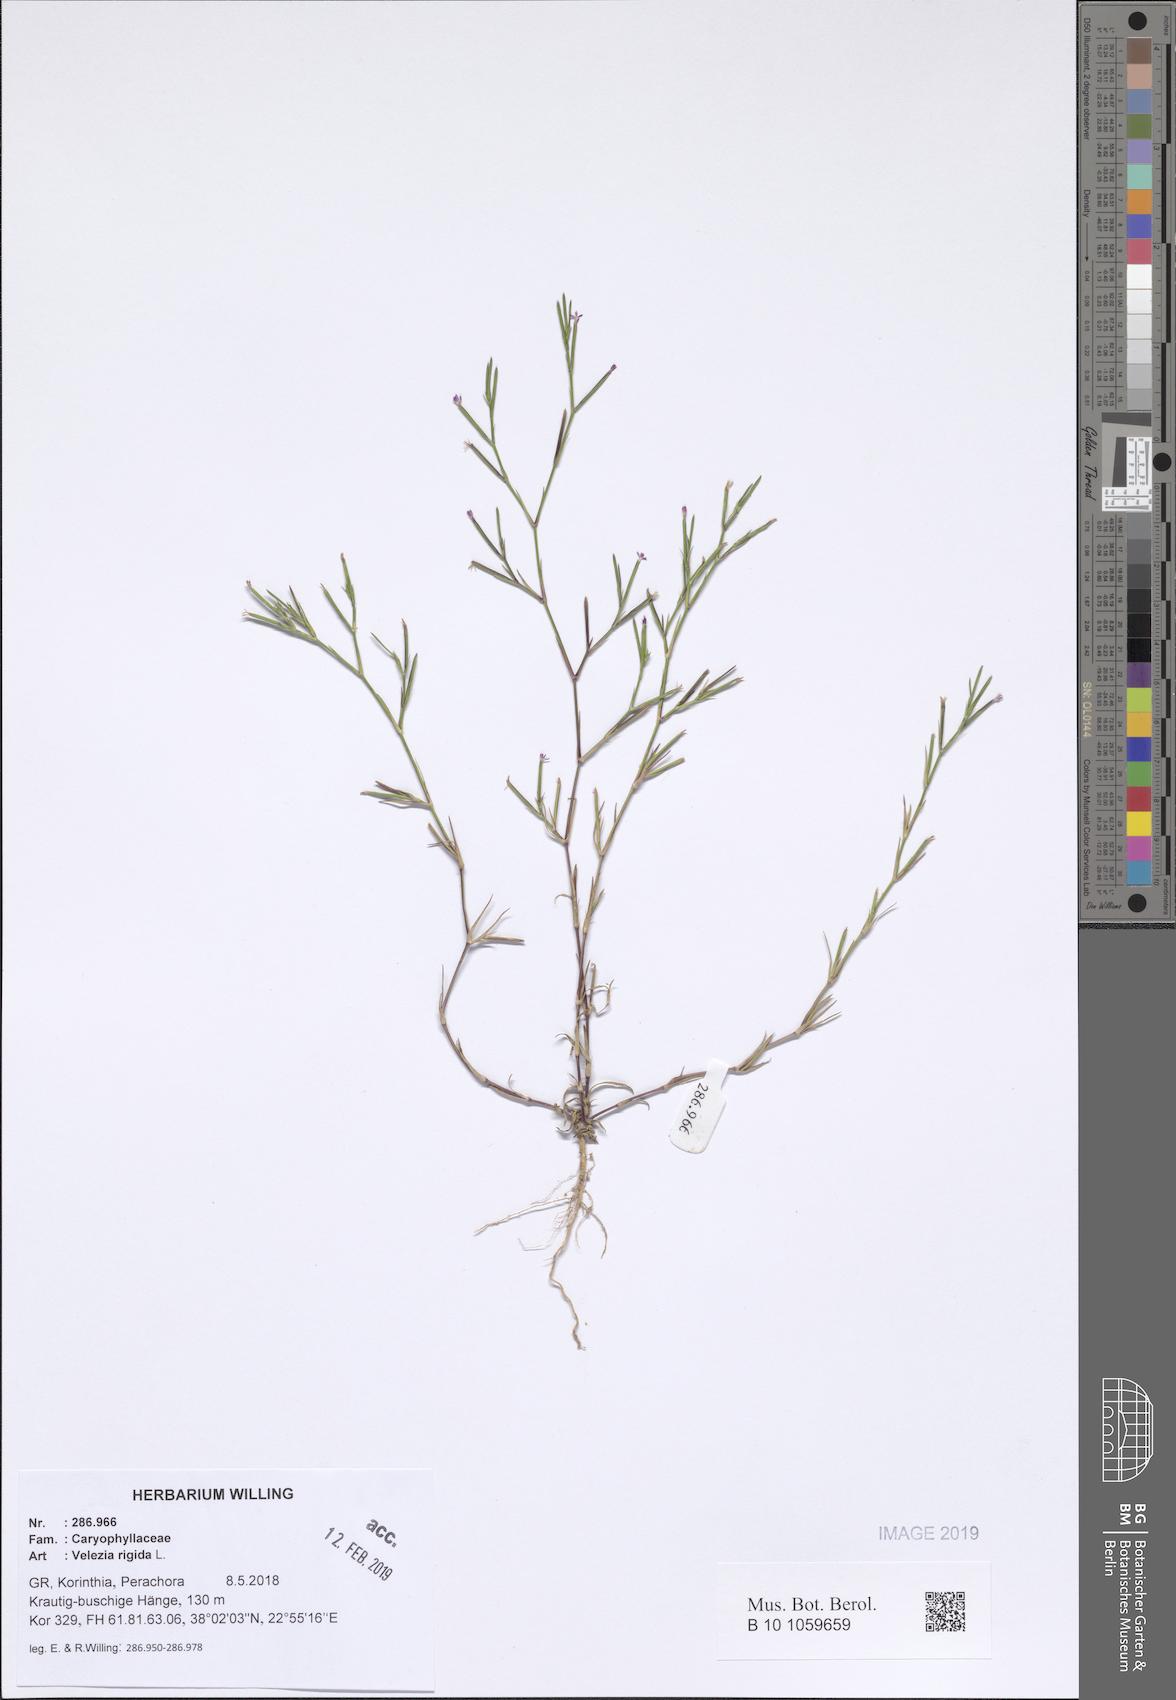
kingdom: Plantae
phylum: Tracheophyta
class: Magnoliopsida
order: Caryophyllales
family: Caryophyllaceae
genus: Dianthus
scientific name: Dianthus nudiflorus
